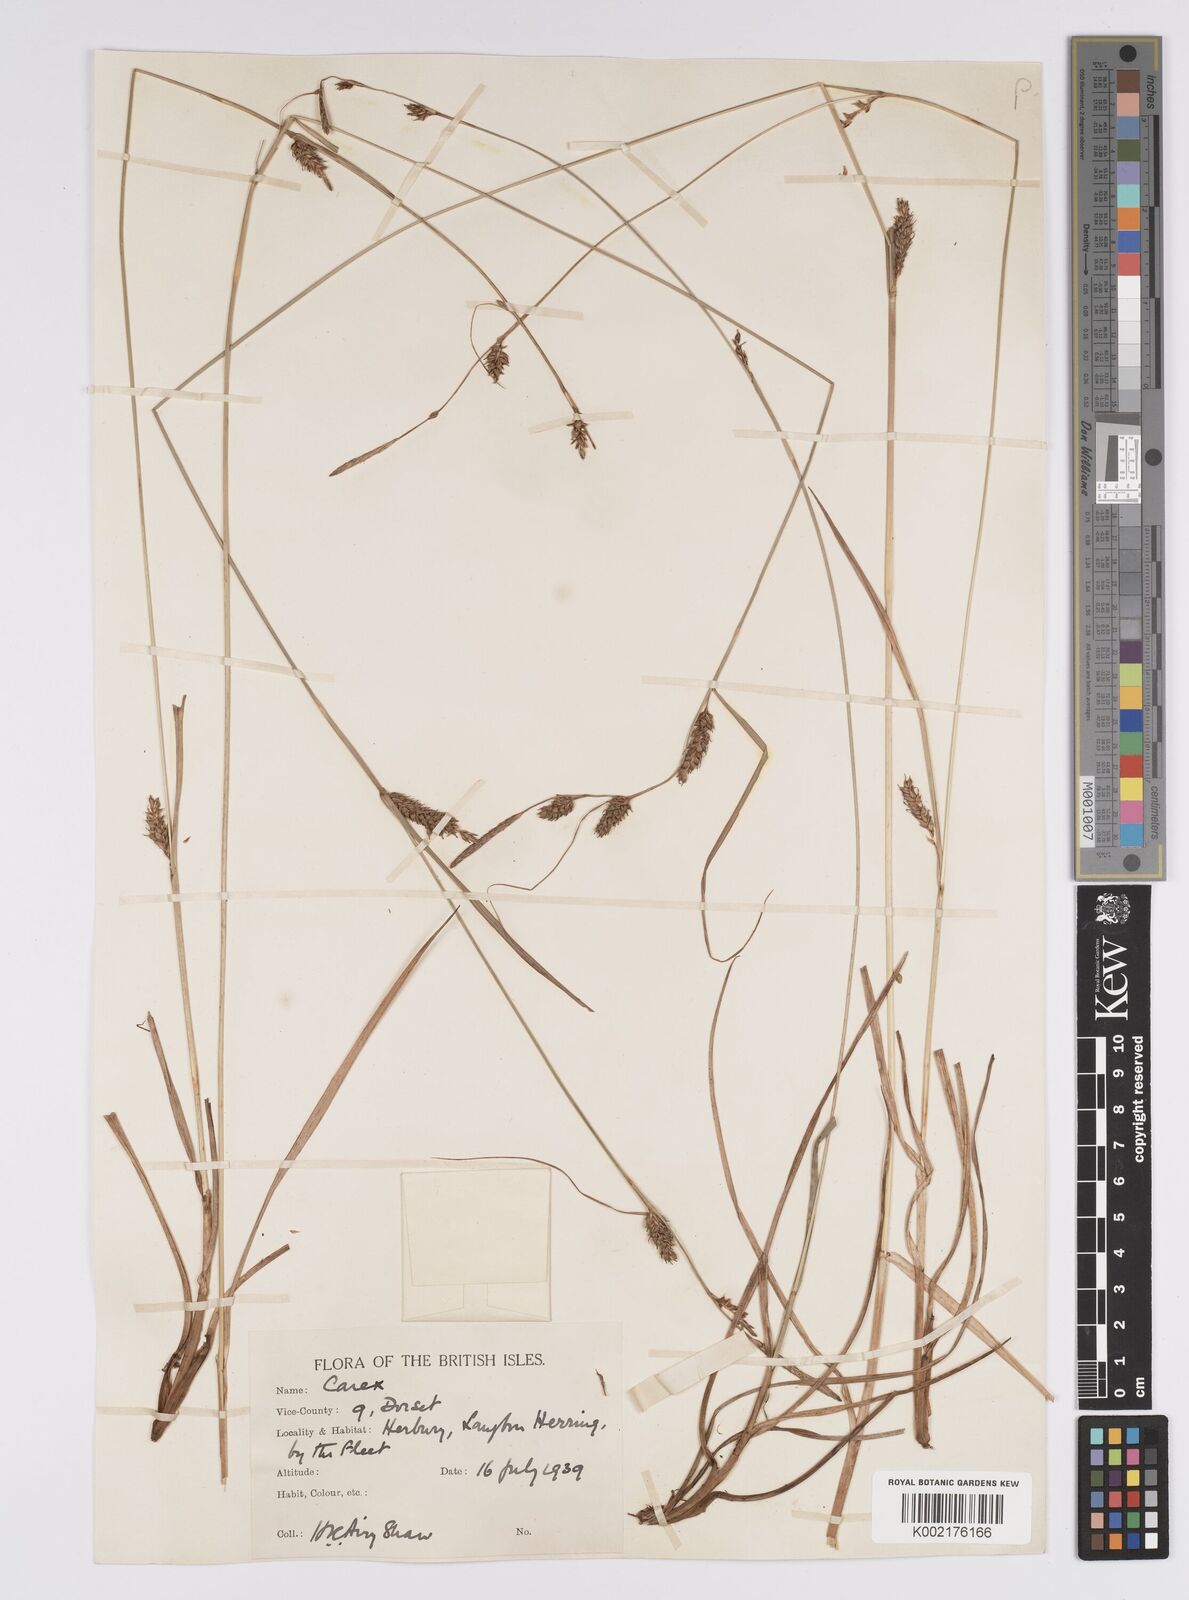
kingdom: Plantae
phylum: Tracheophyta
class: Liliopsida
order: Poales
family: Cyperaceae
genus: Carex
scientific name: Carex distans
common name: Distant sedge
